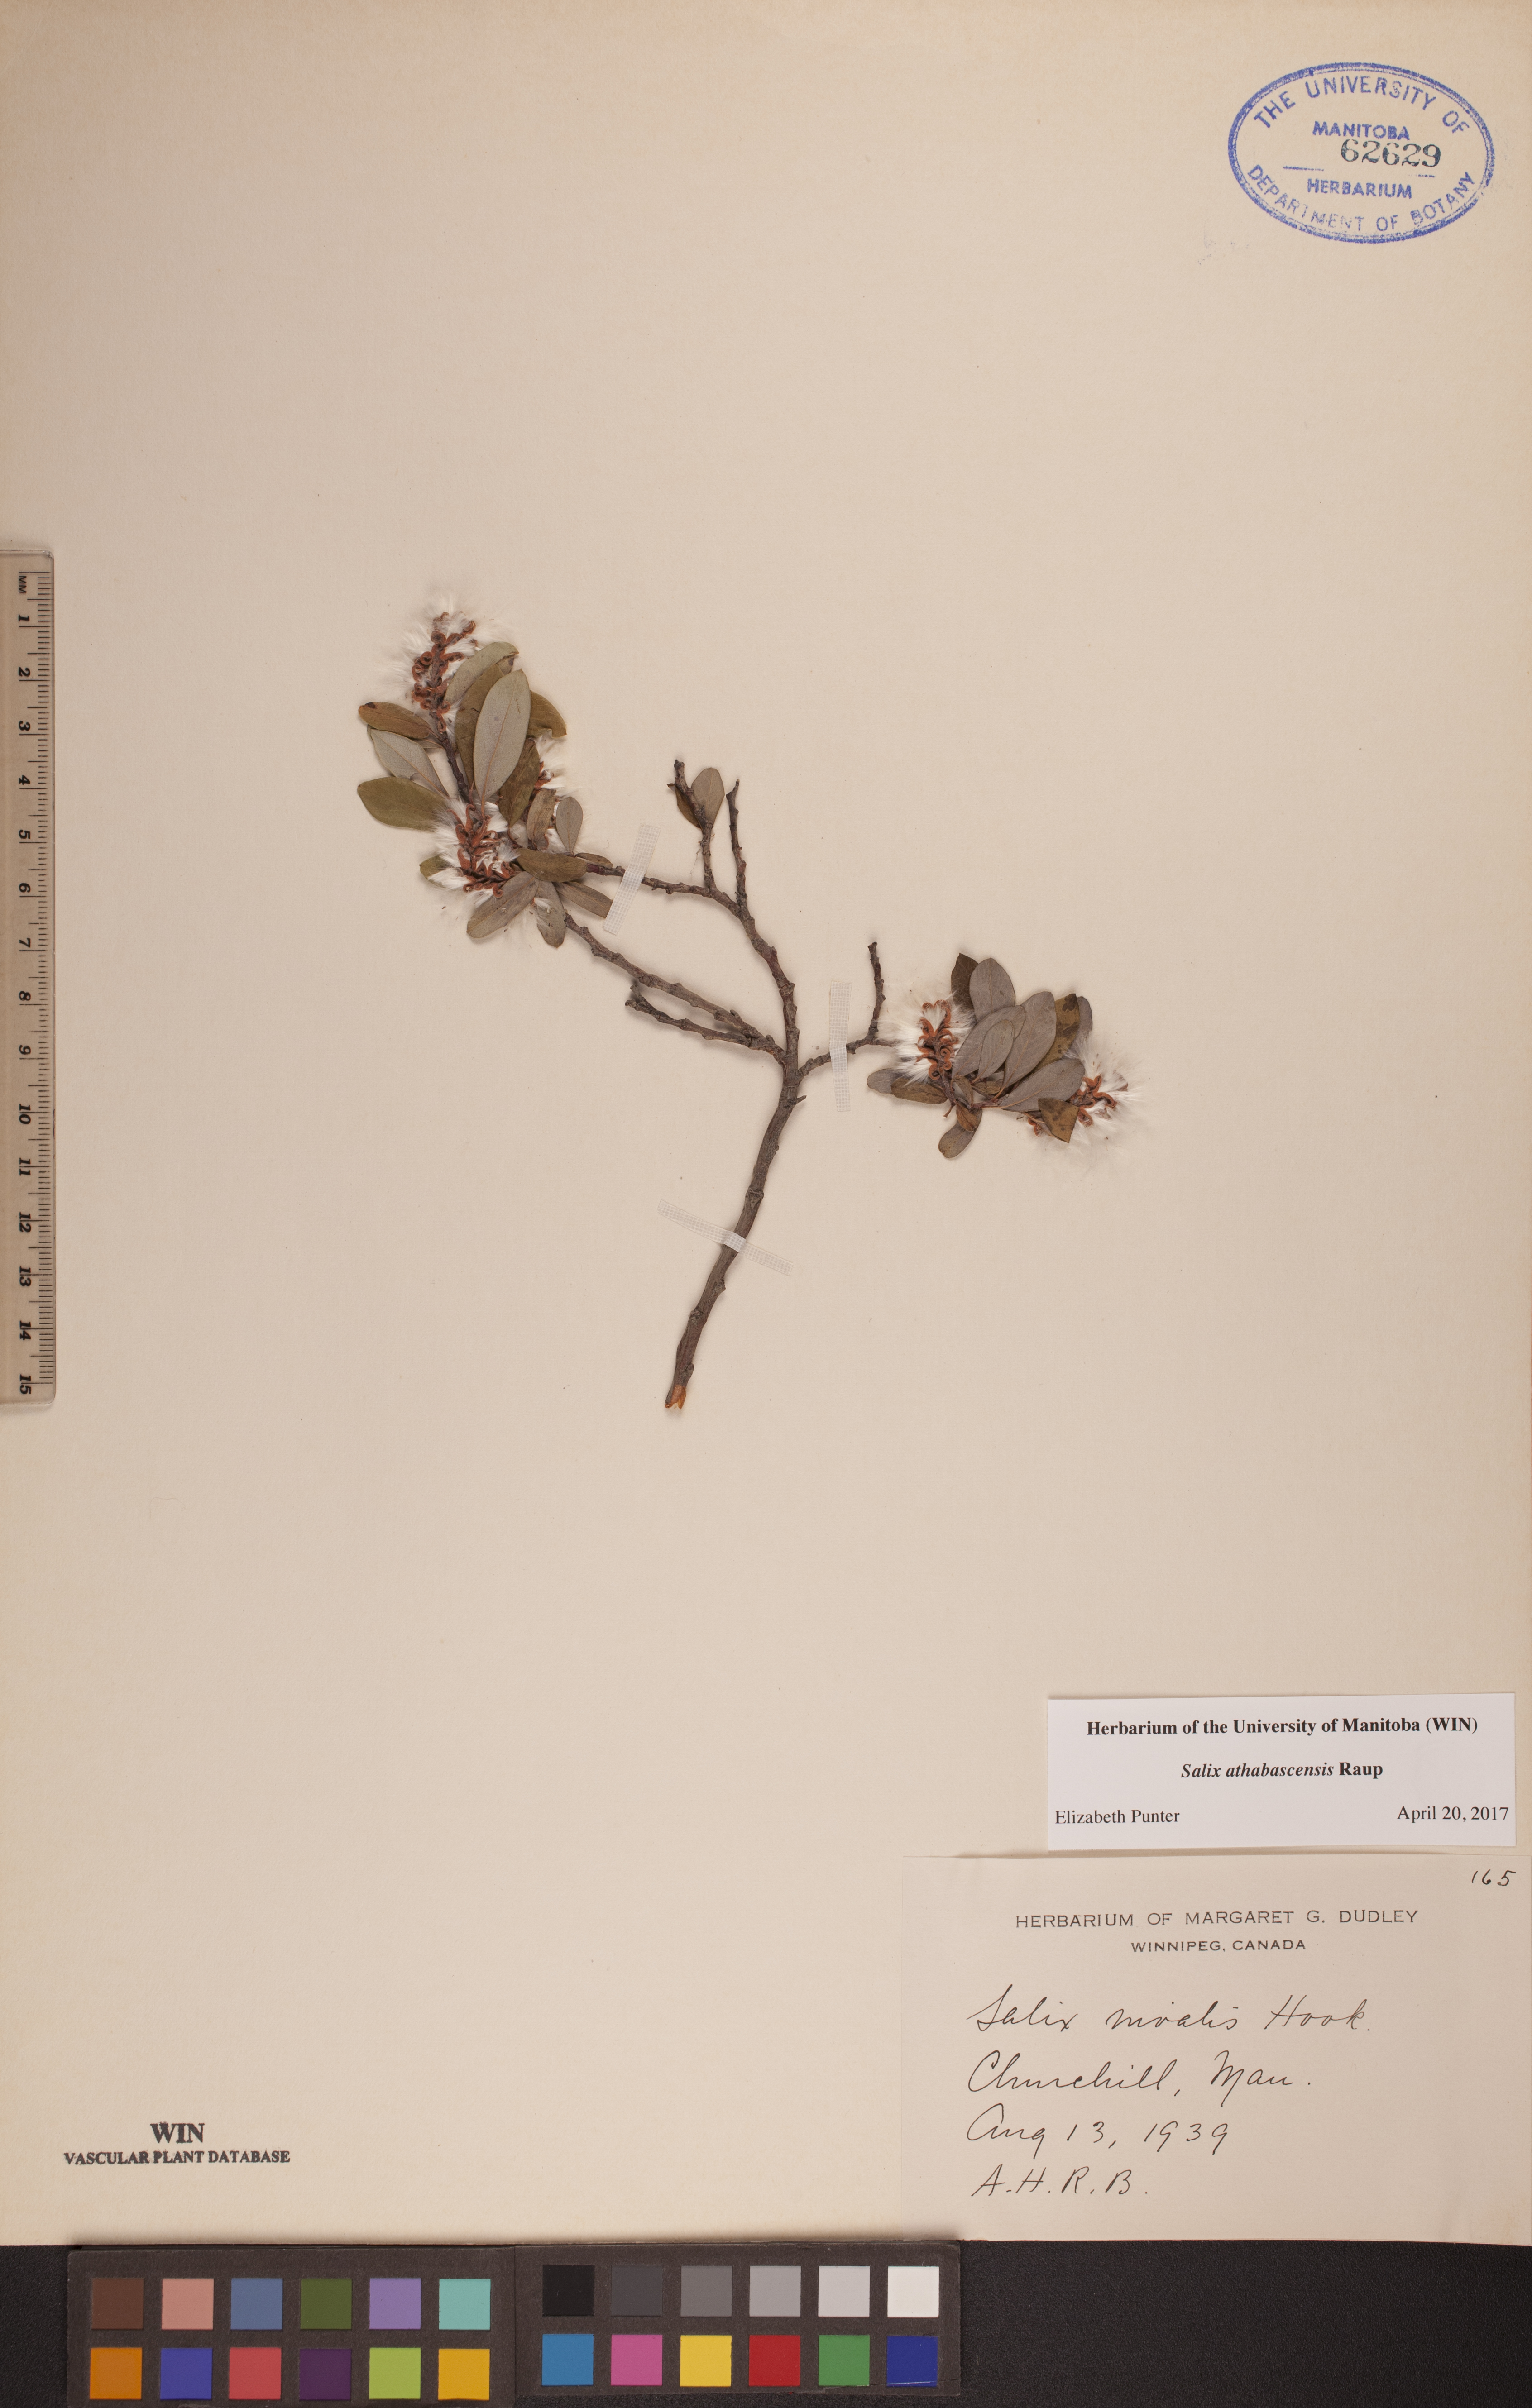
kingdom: Plantae
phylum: Tracheophyta
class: Magnoliopsida
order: Malpighiales
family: Salicaceae
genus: Salix
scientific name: Salix athabascensis
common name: Athabasca willow
